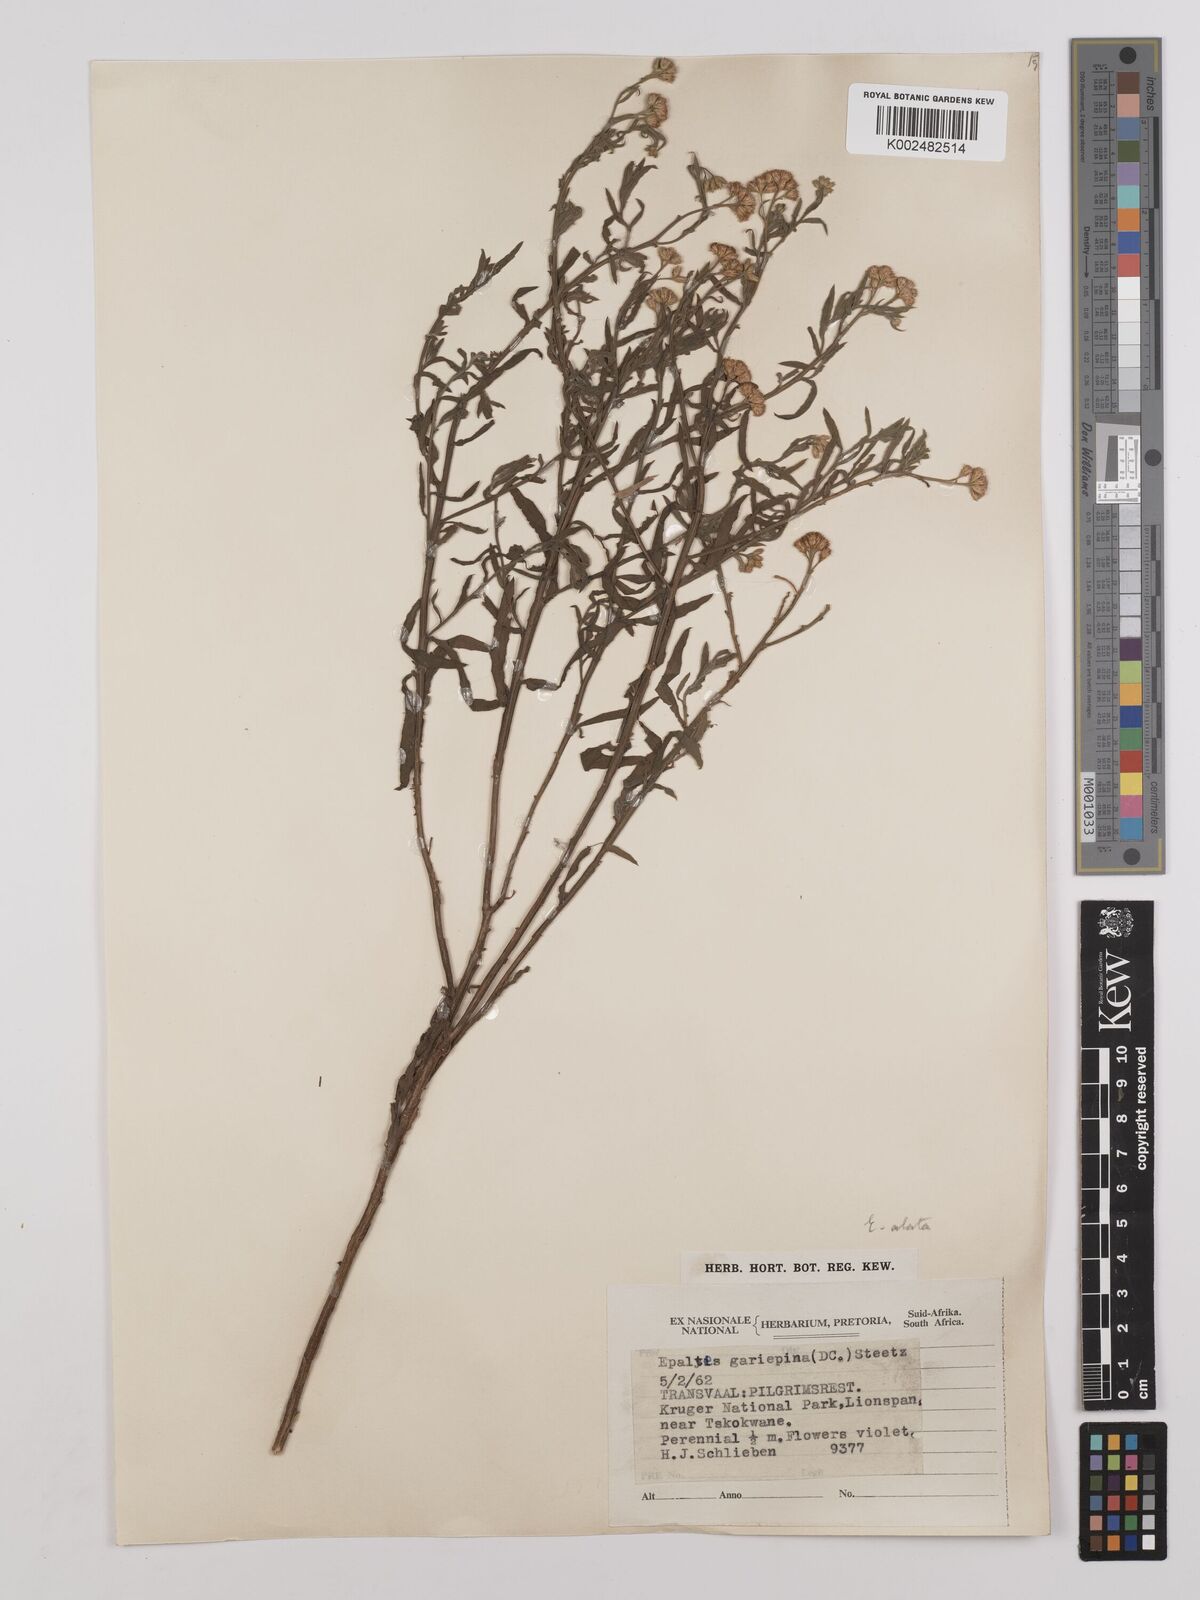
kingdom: Plantae
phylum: Tracheophyta
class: Magnoliopsida
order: Asterales
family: Asteraceae
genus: Litogyne
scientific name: Litogyne gariepina
